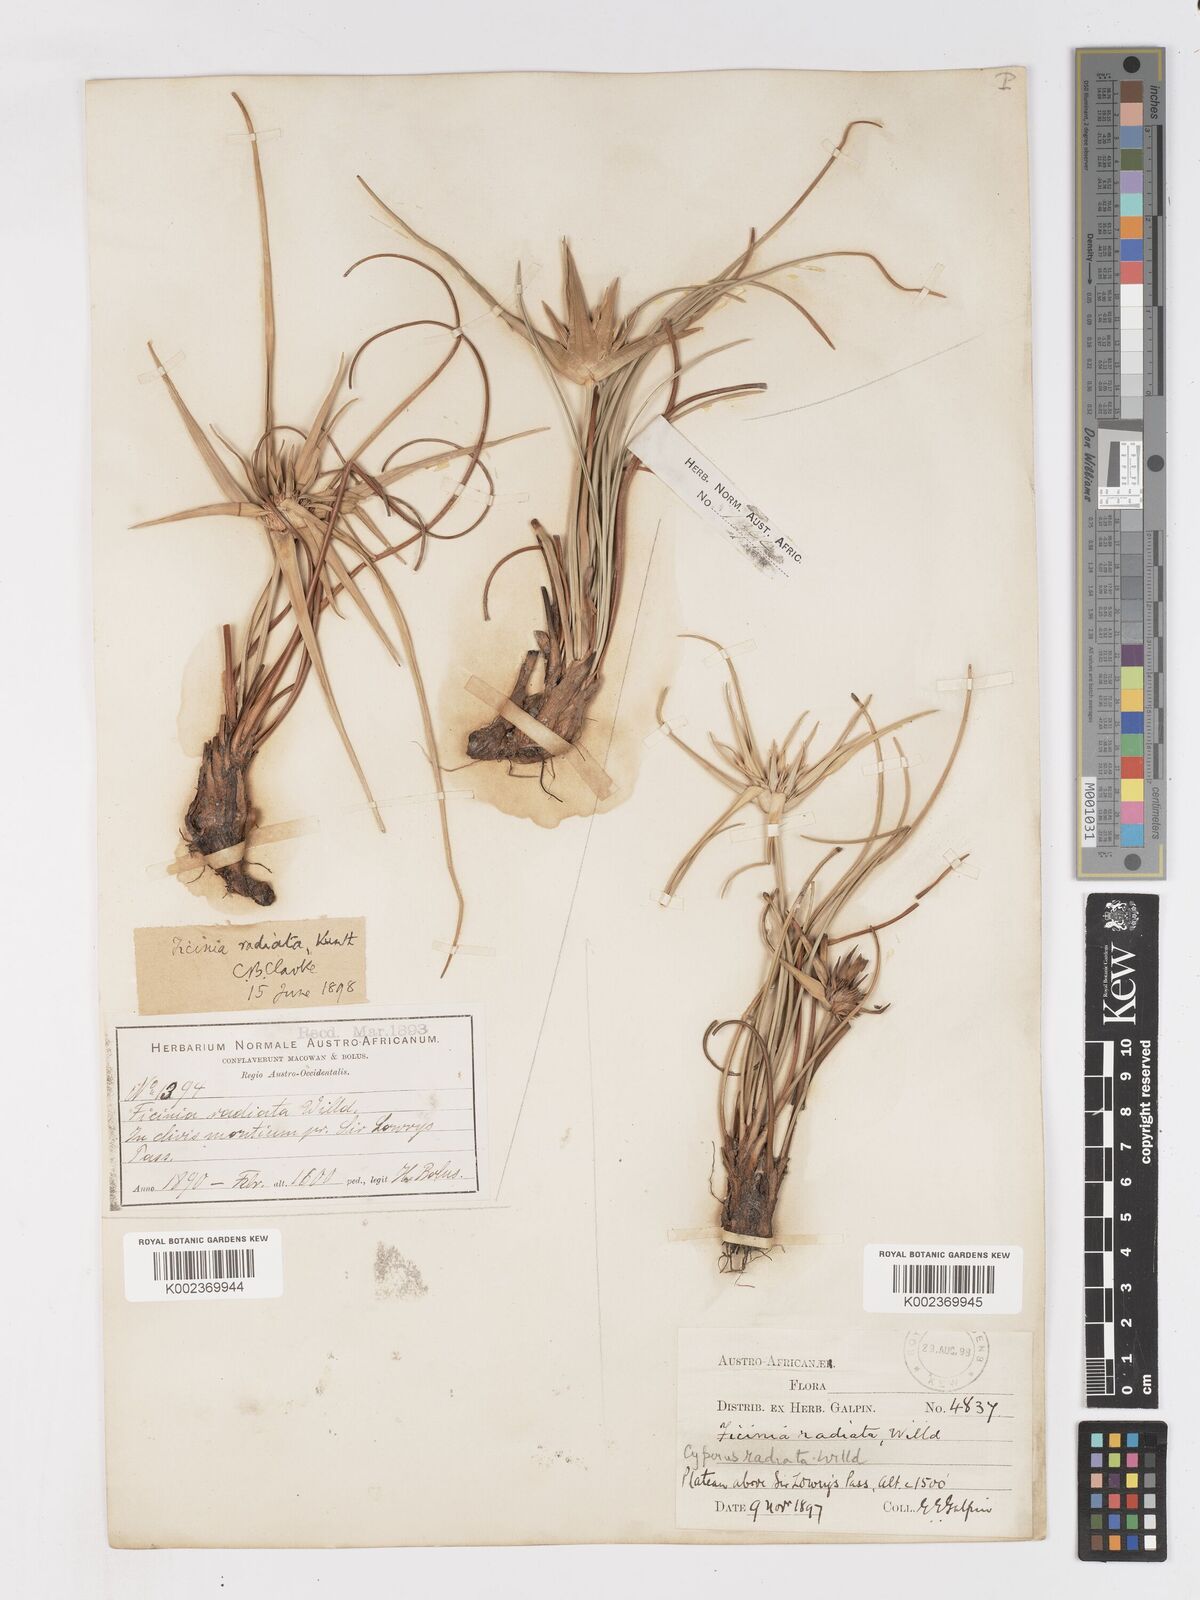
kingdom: Plantae
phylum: Tracheophyta
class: Liliopsida
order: Poales
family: Cyperaceae
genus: Ficinia
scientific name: Ficinia radiata
